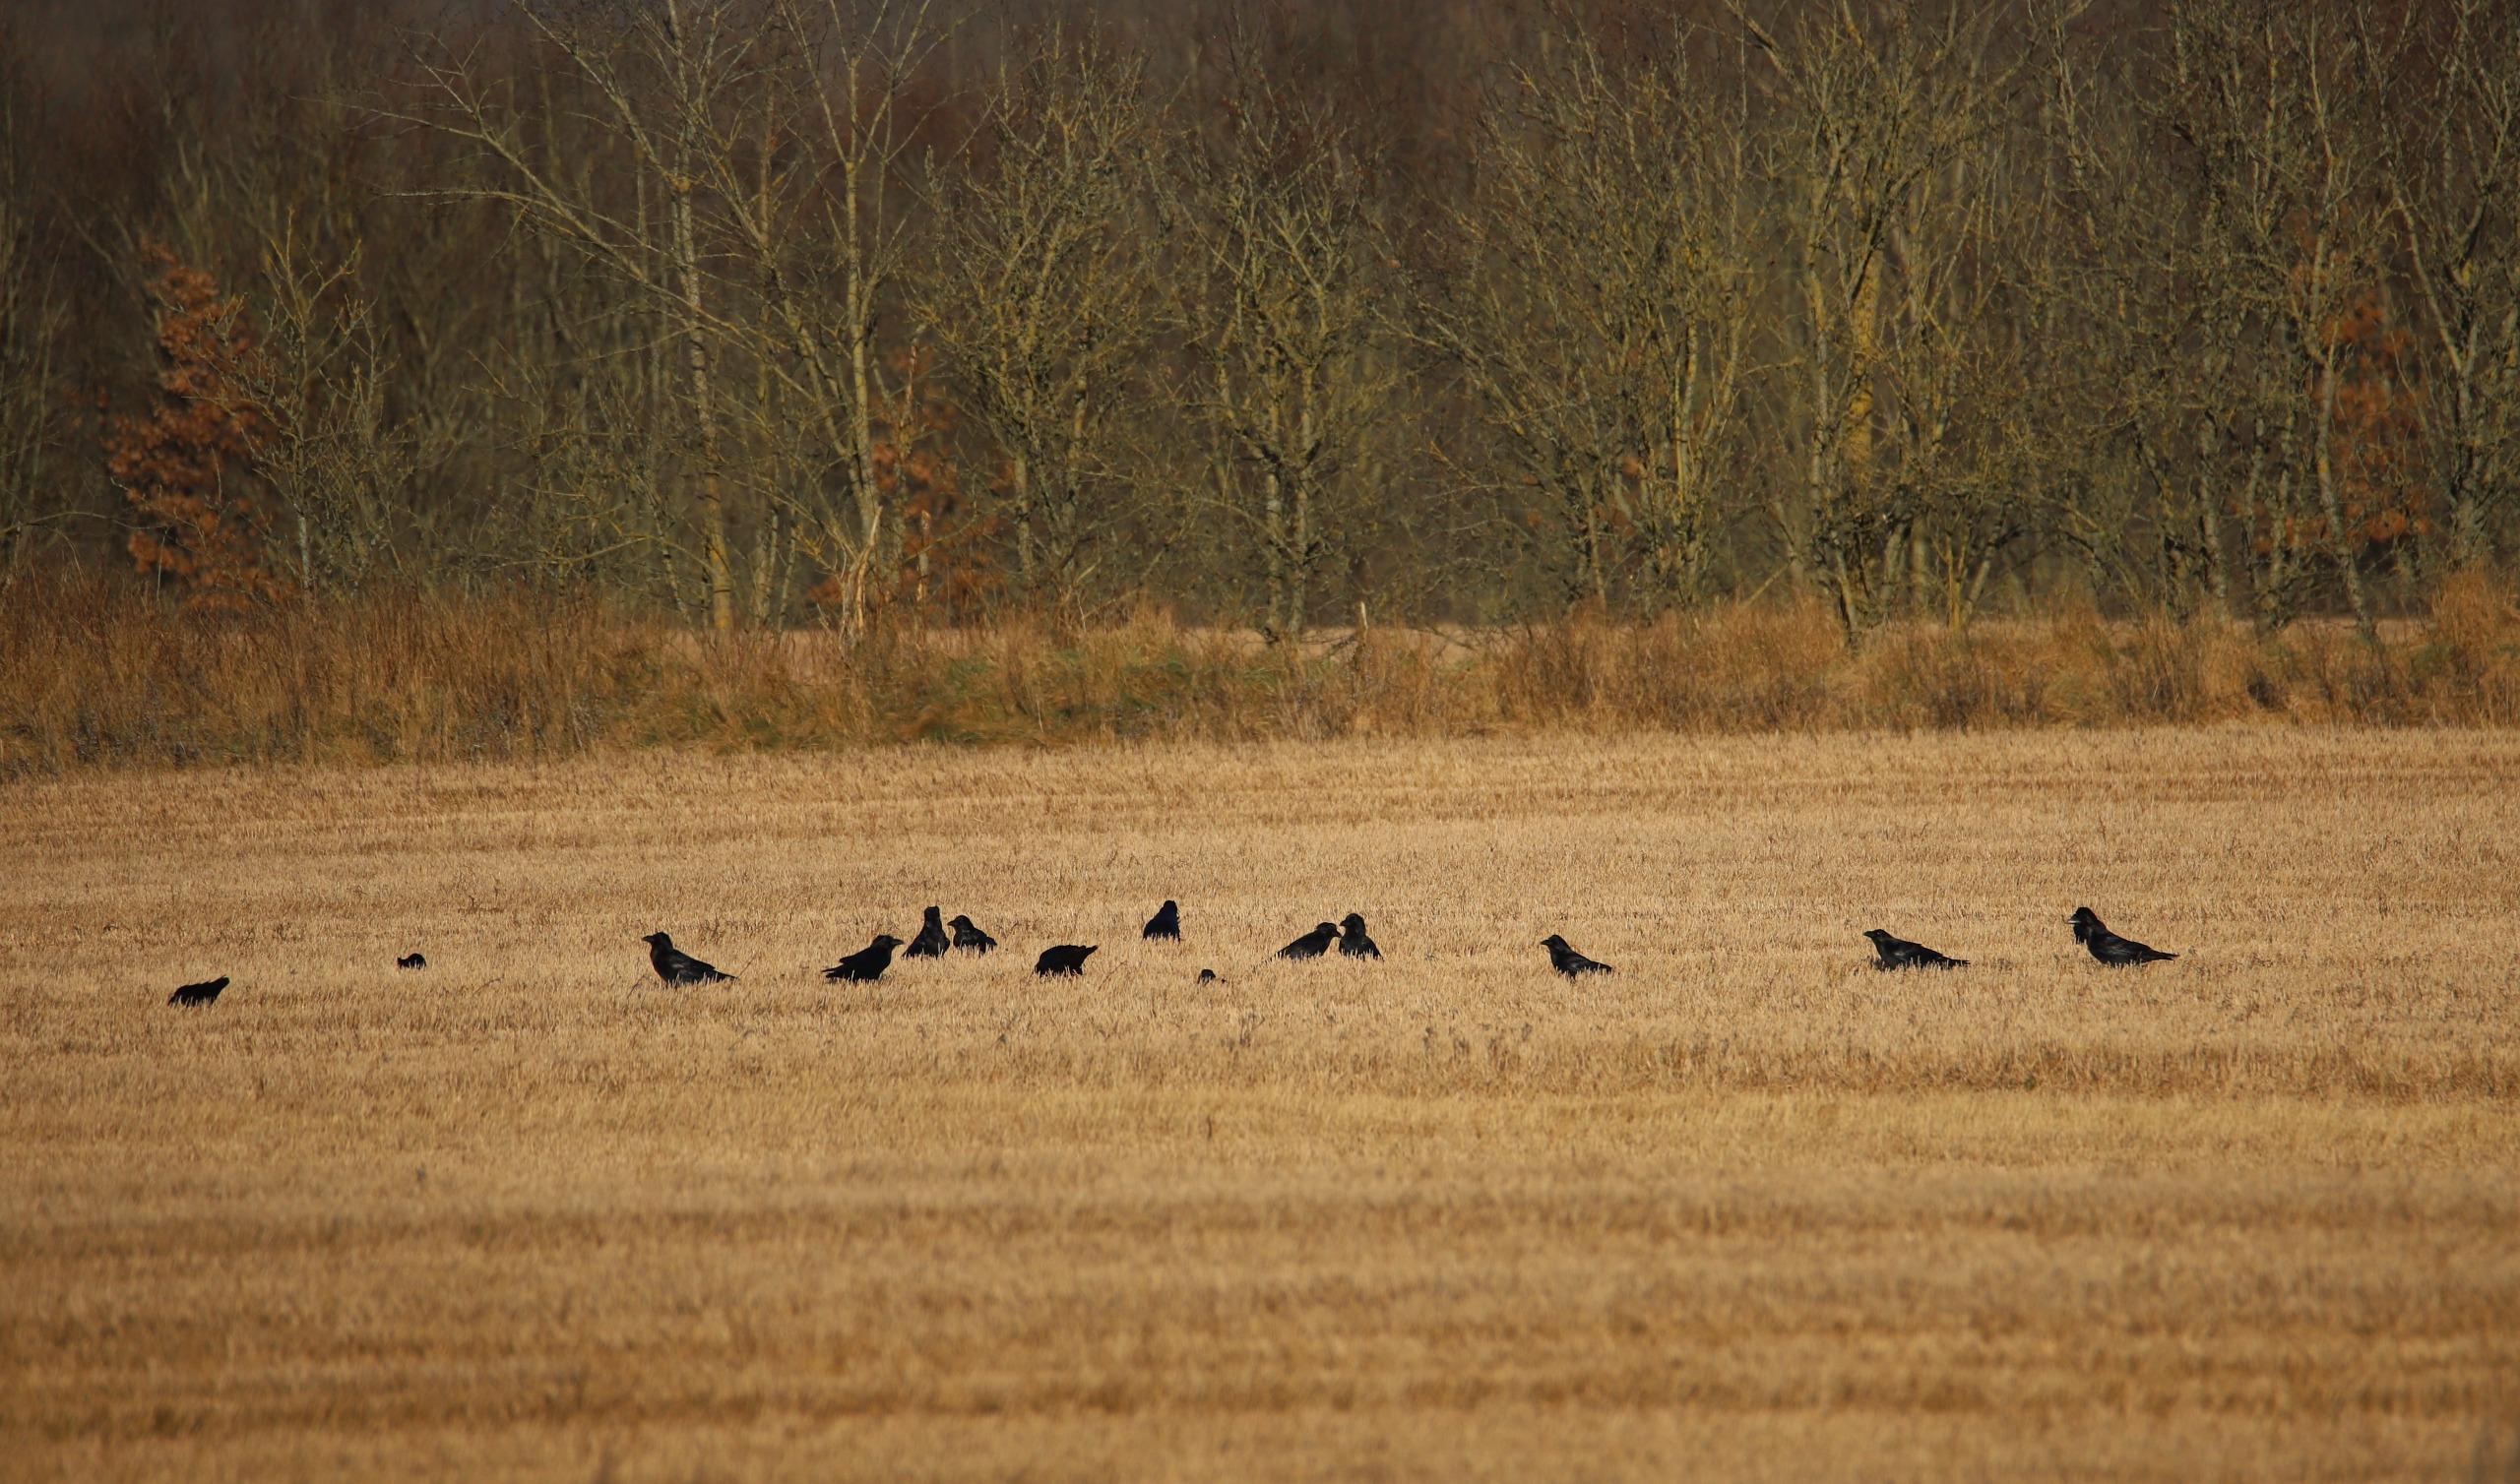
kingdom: Animalia
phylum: Chordata
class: Aves
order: Passeriformes
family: Corvidae
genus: Corvus
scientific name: Corvus corax
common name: Ravn
